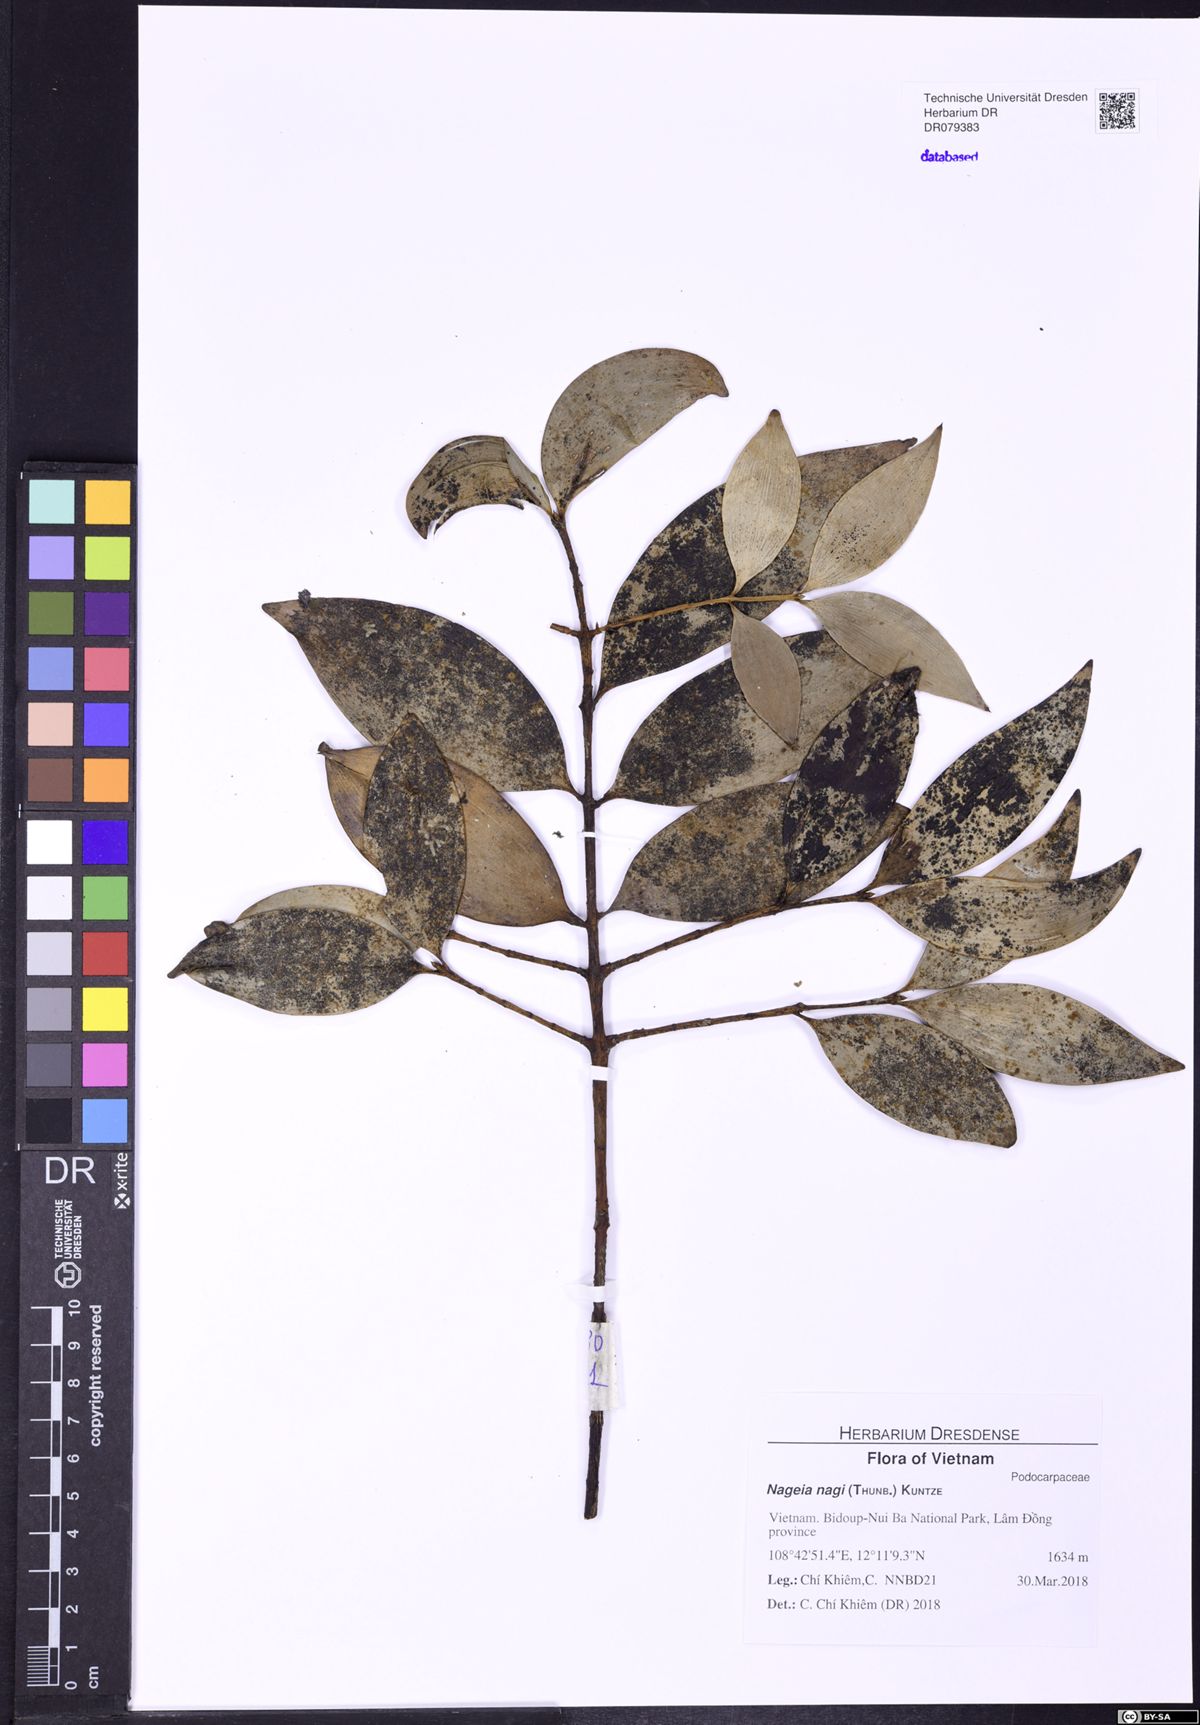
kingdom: Plantae
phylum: Tracheophyta
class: Pinopsida
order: Pinales
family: Podocarpaceae
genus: Nageia
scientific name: Nageia nagi
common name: Kaphal
